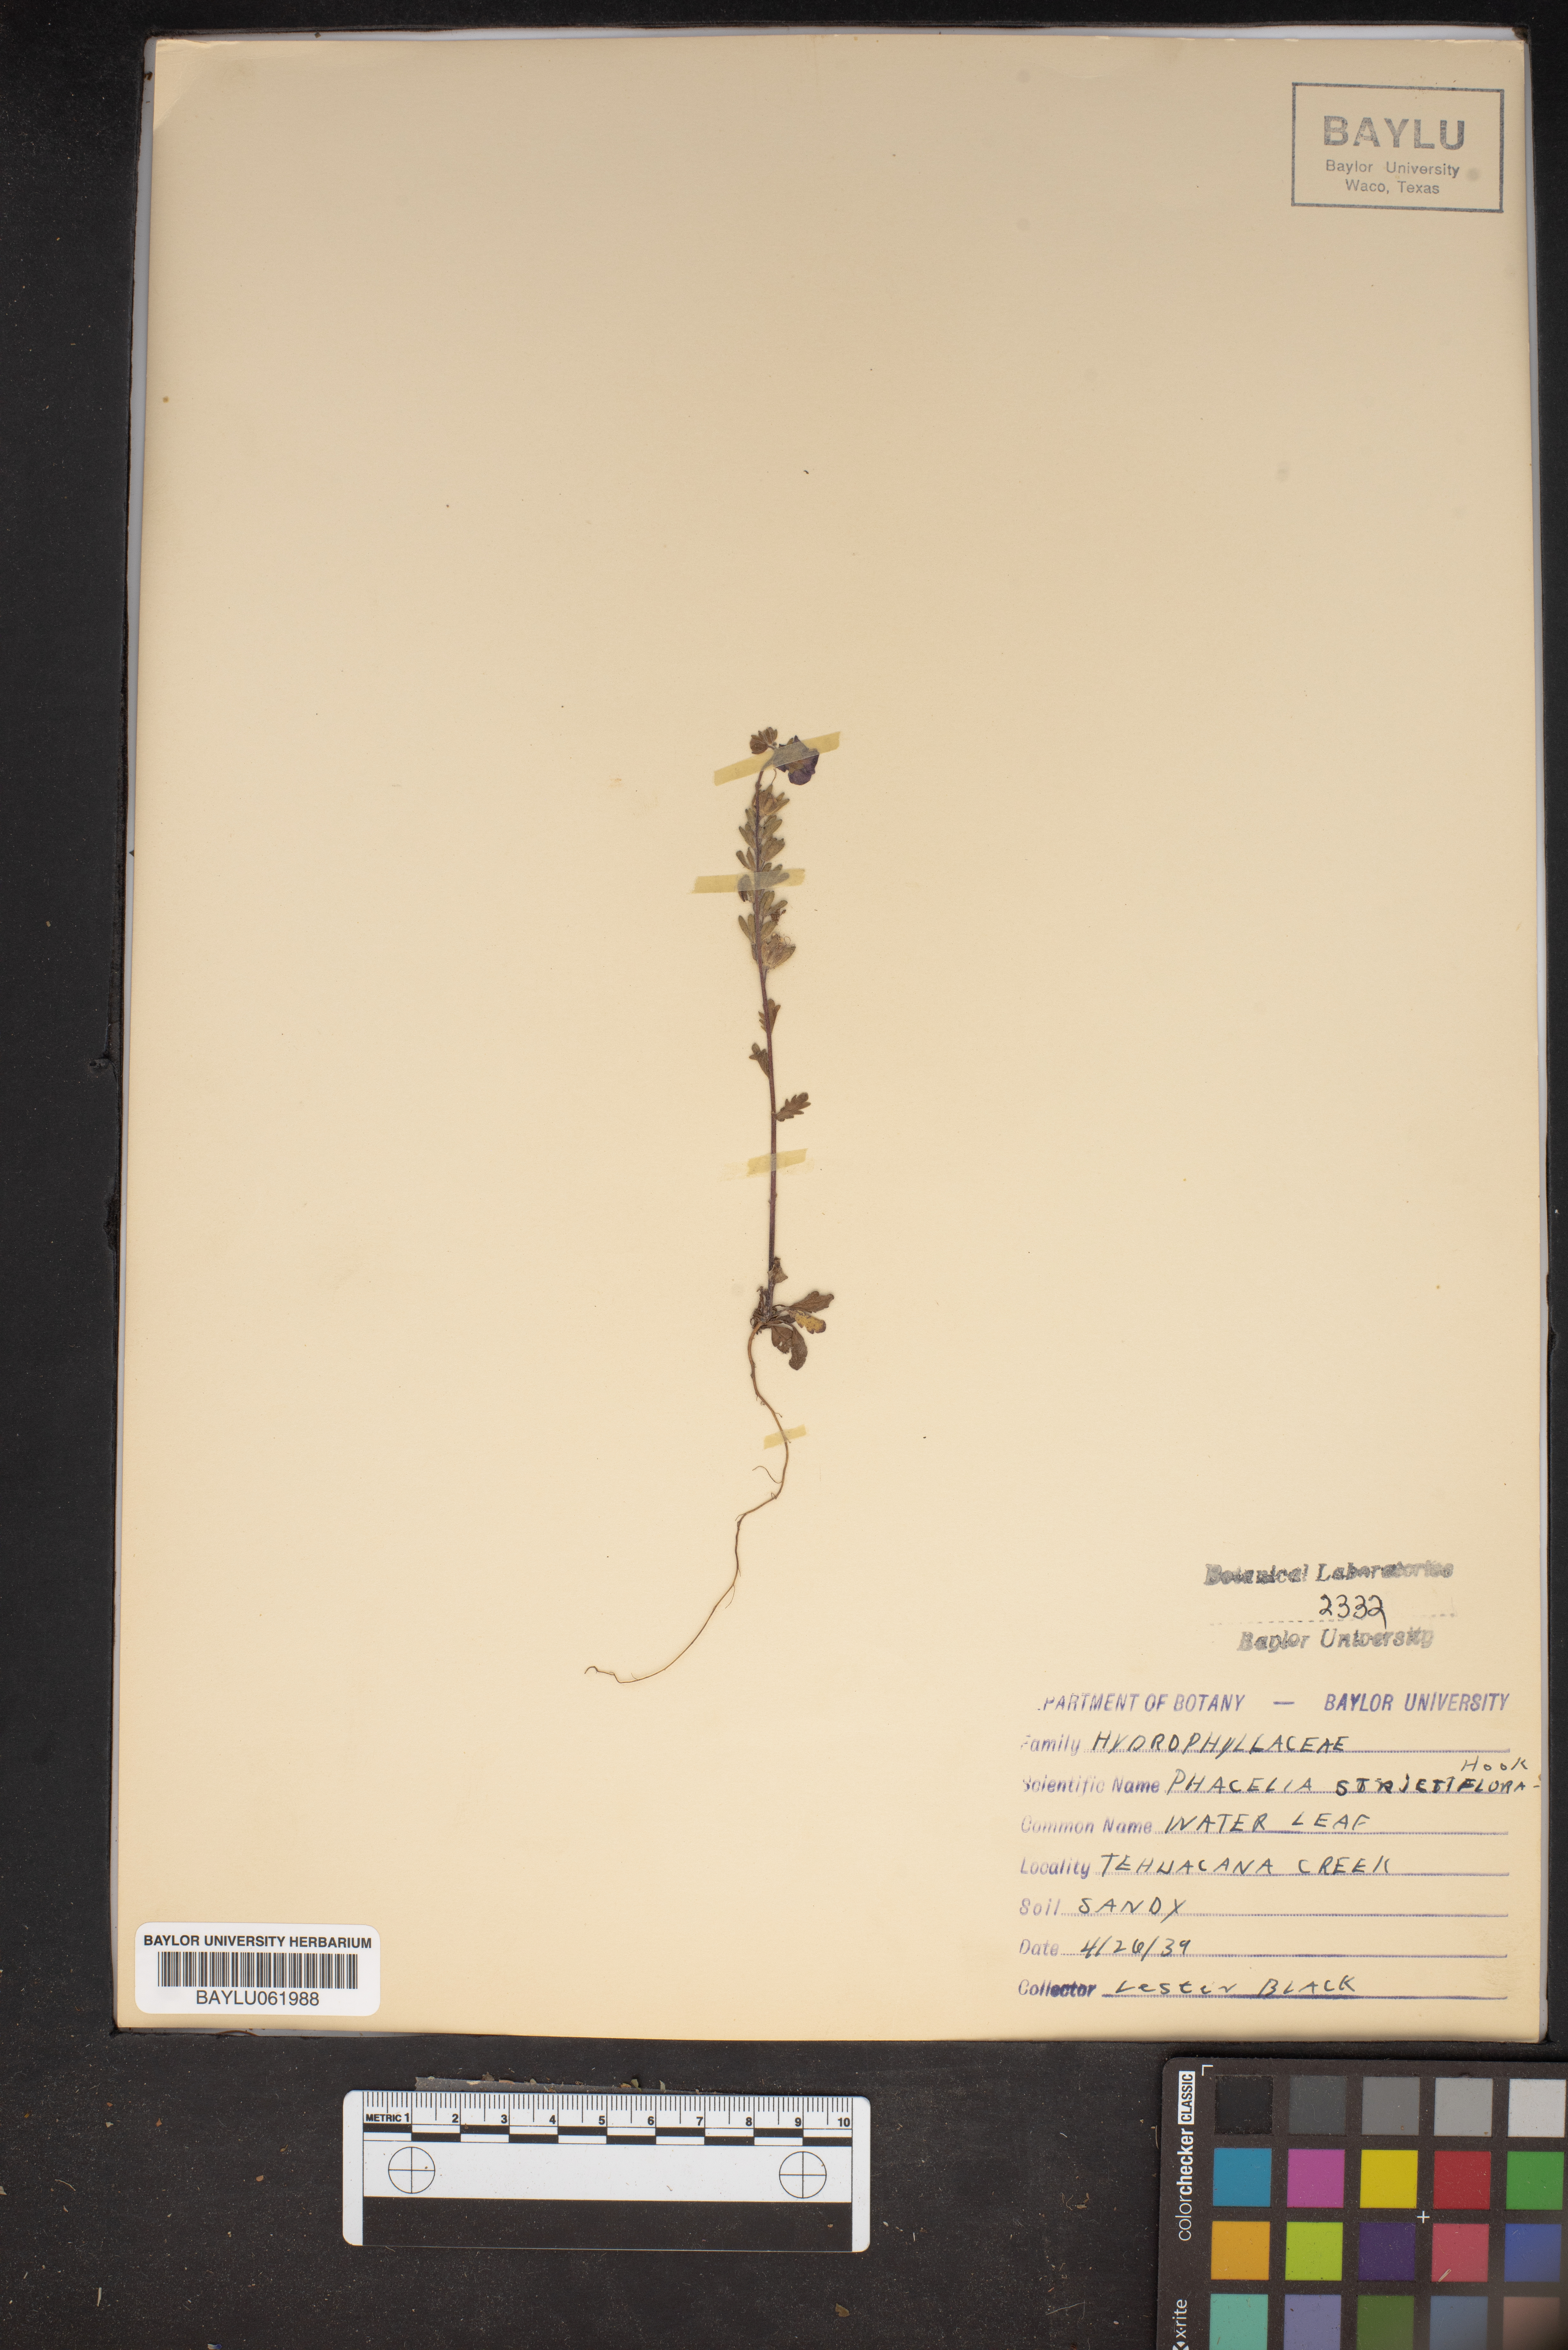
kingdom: Plantae
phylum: Tracheophyta
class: Magnoliopsida
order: Boraginales
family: Hydrophyllaceae
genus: Phacelia
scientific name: Phacelia strictiflora
